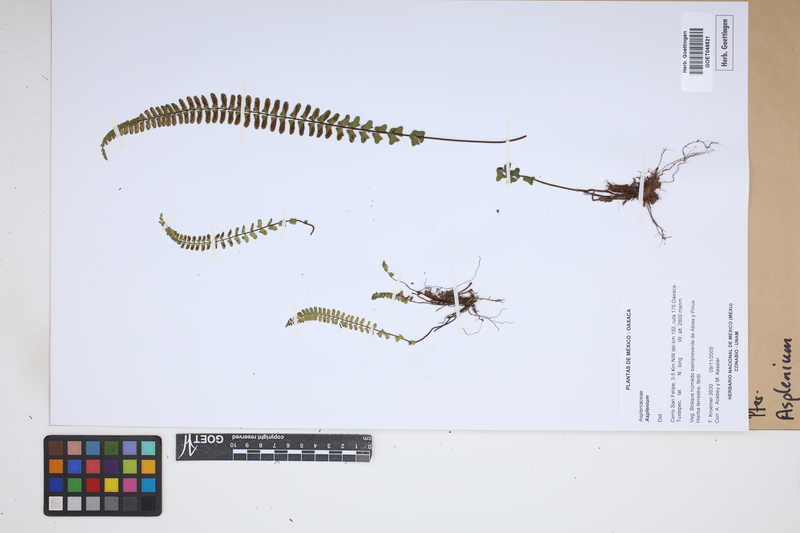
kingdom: Plantae
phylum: Tracheophyta
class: Polypodiopsida
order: Polypodiales
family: Aspleniaceae
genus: Asplenium
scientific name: Asplenium
